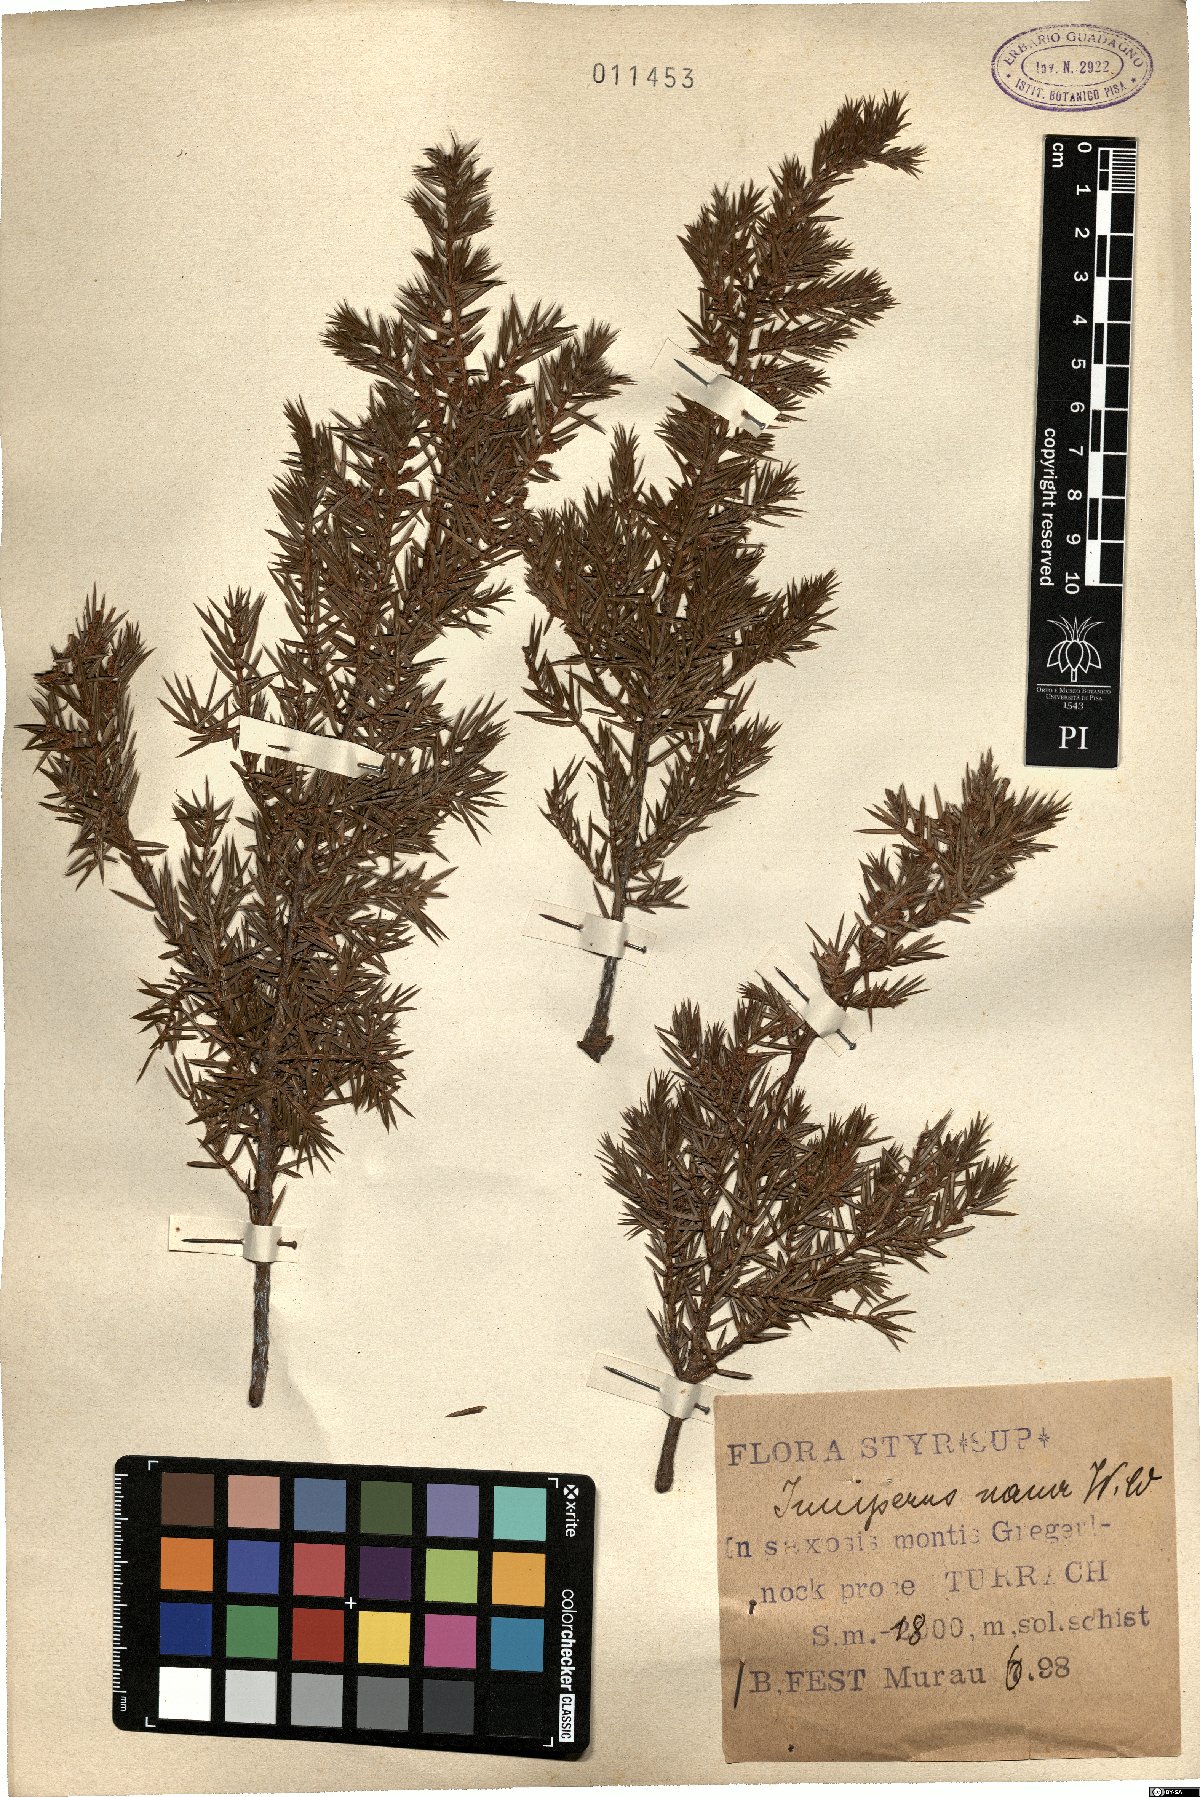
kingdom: Plantae
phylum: Tracheophyta
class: Pinopsida
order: Pinales
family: Cupressaceae
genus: Juniperus
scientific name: Juniperus communis
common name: Common juniper
